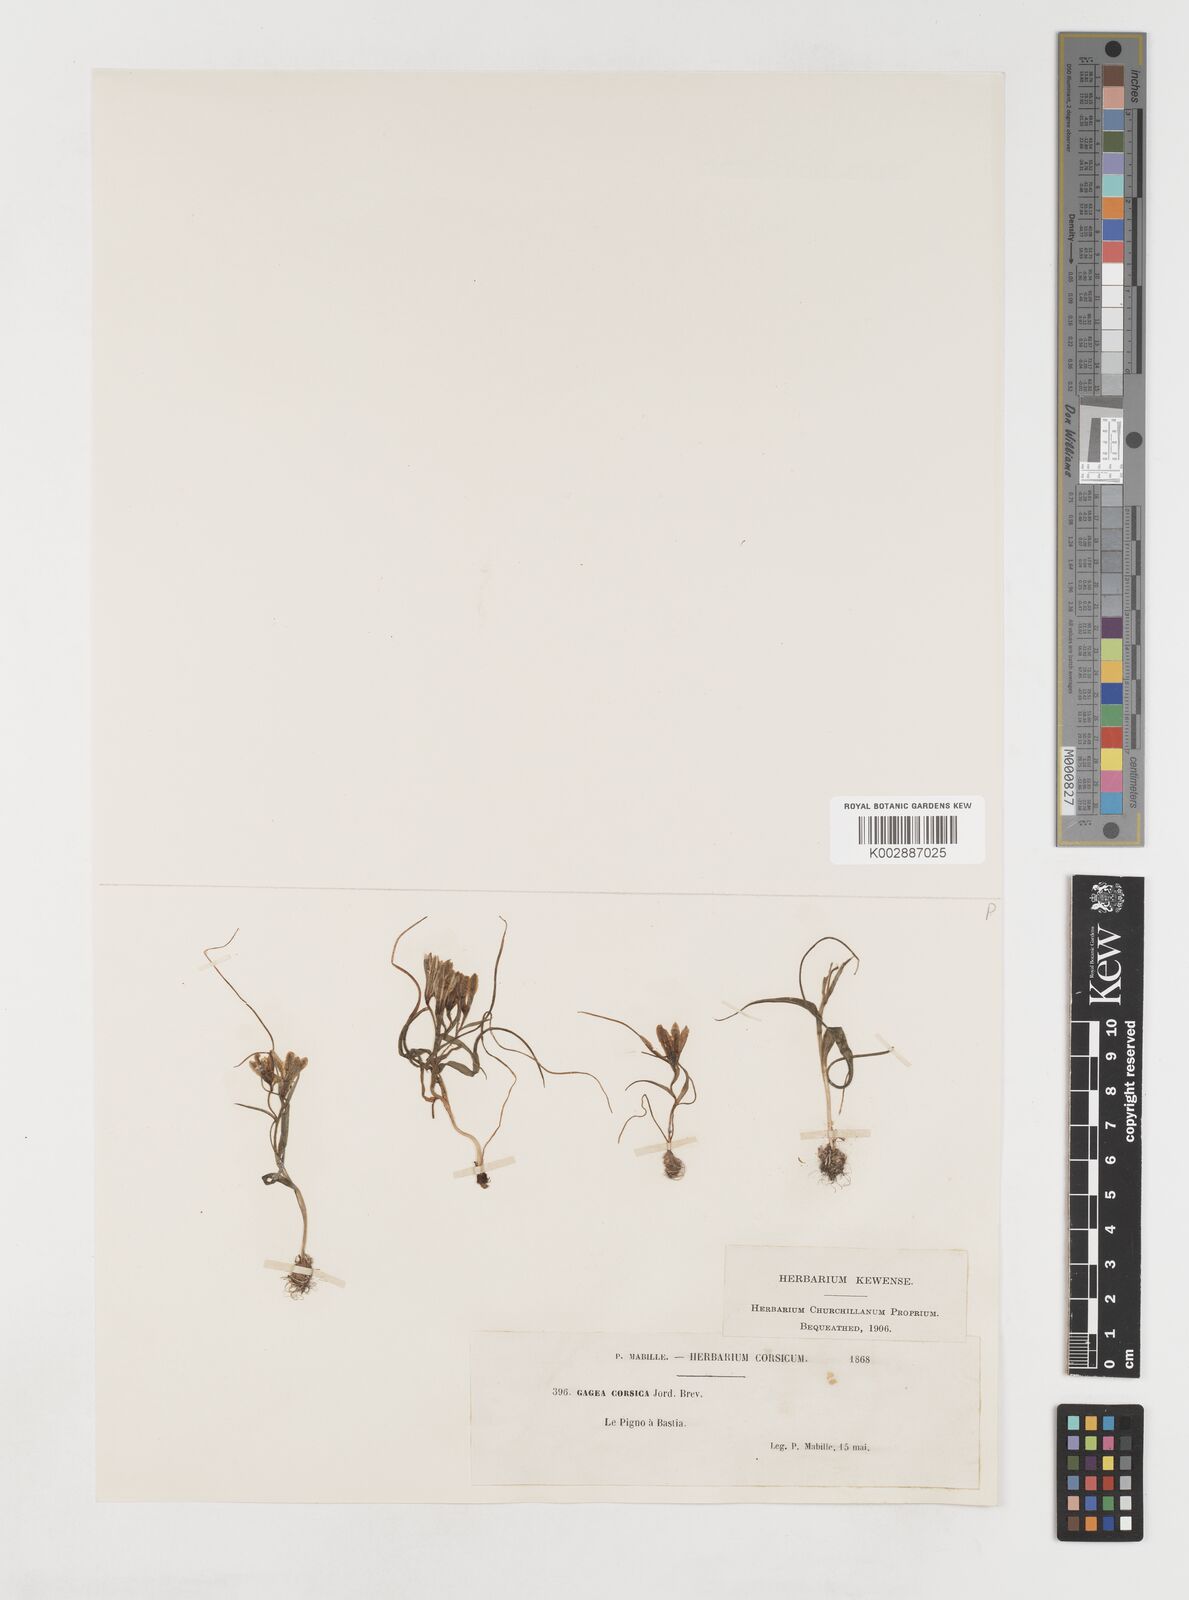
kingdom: Plantae
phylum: Tracheophyta
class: Liliopsida
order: Liliales
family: Liliaceae
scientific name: Liliaceae
